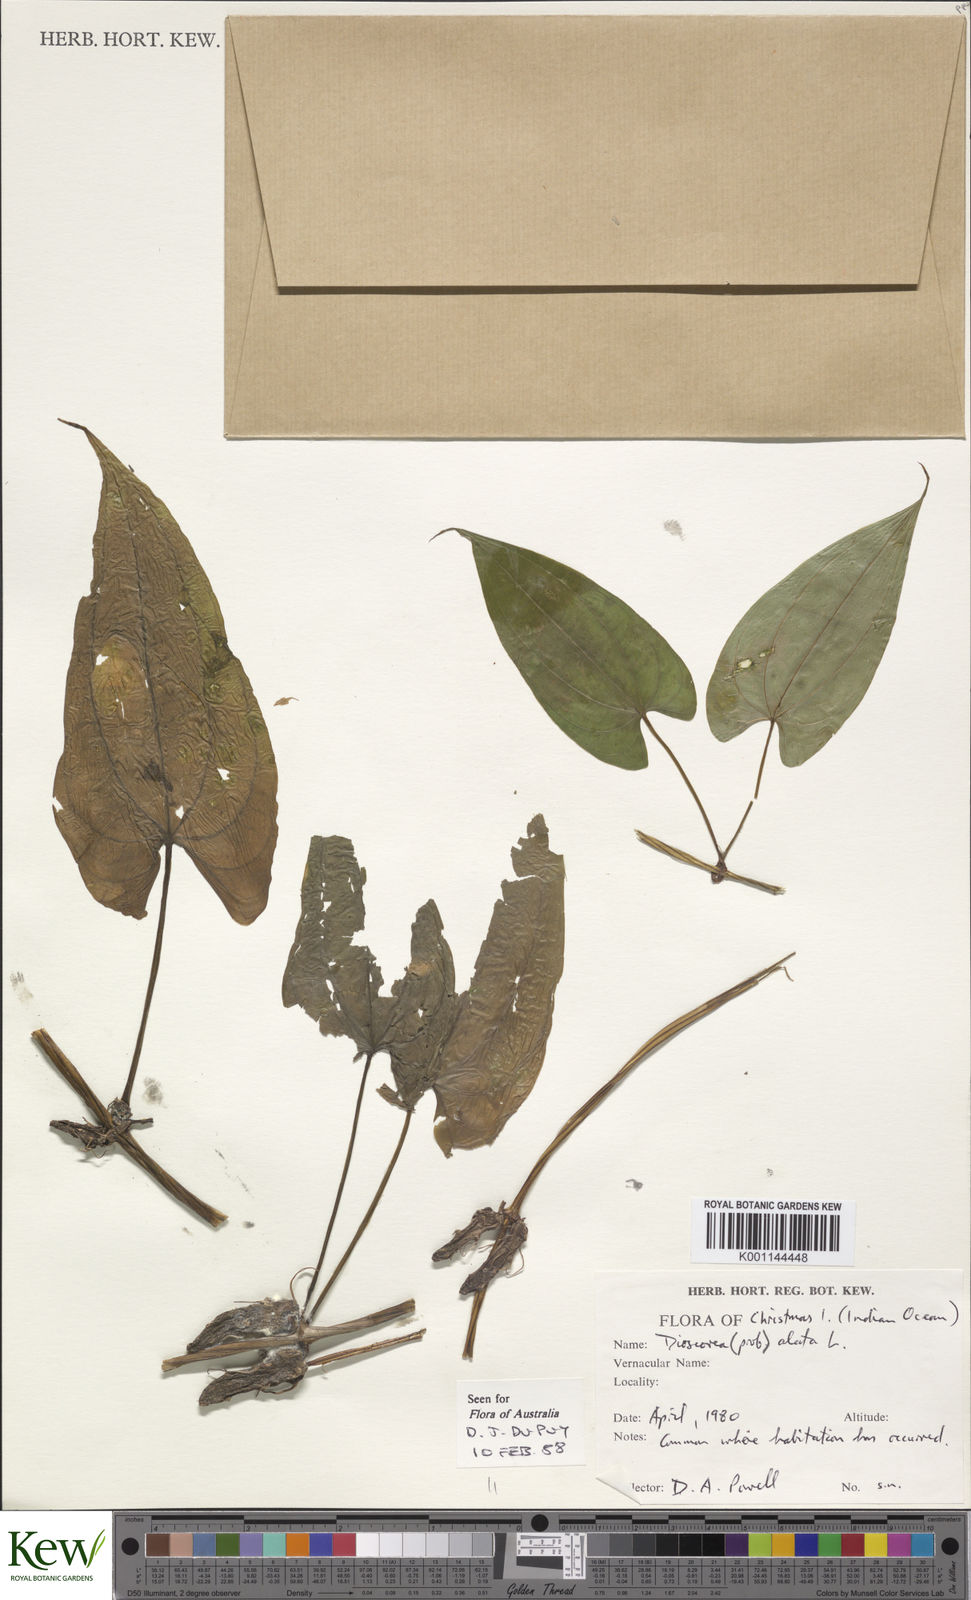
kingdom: Plantae
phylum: Tracheophyta
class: Liliopsida
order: Dioscoreales
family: Dioscoreaceae
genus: Dioscorea
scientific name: Dioscorea alata
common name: Water yam
